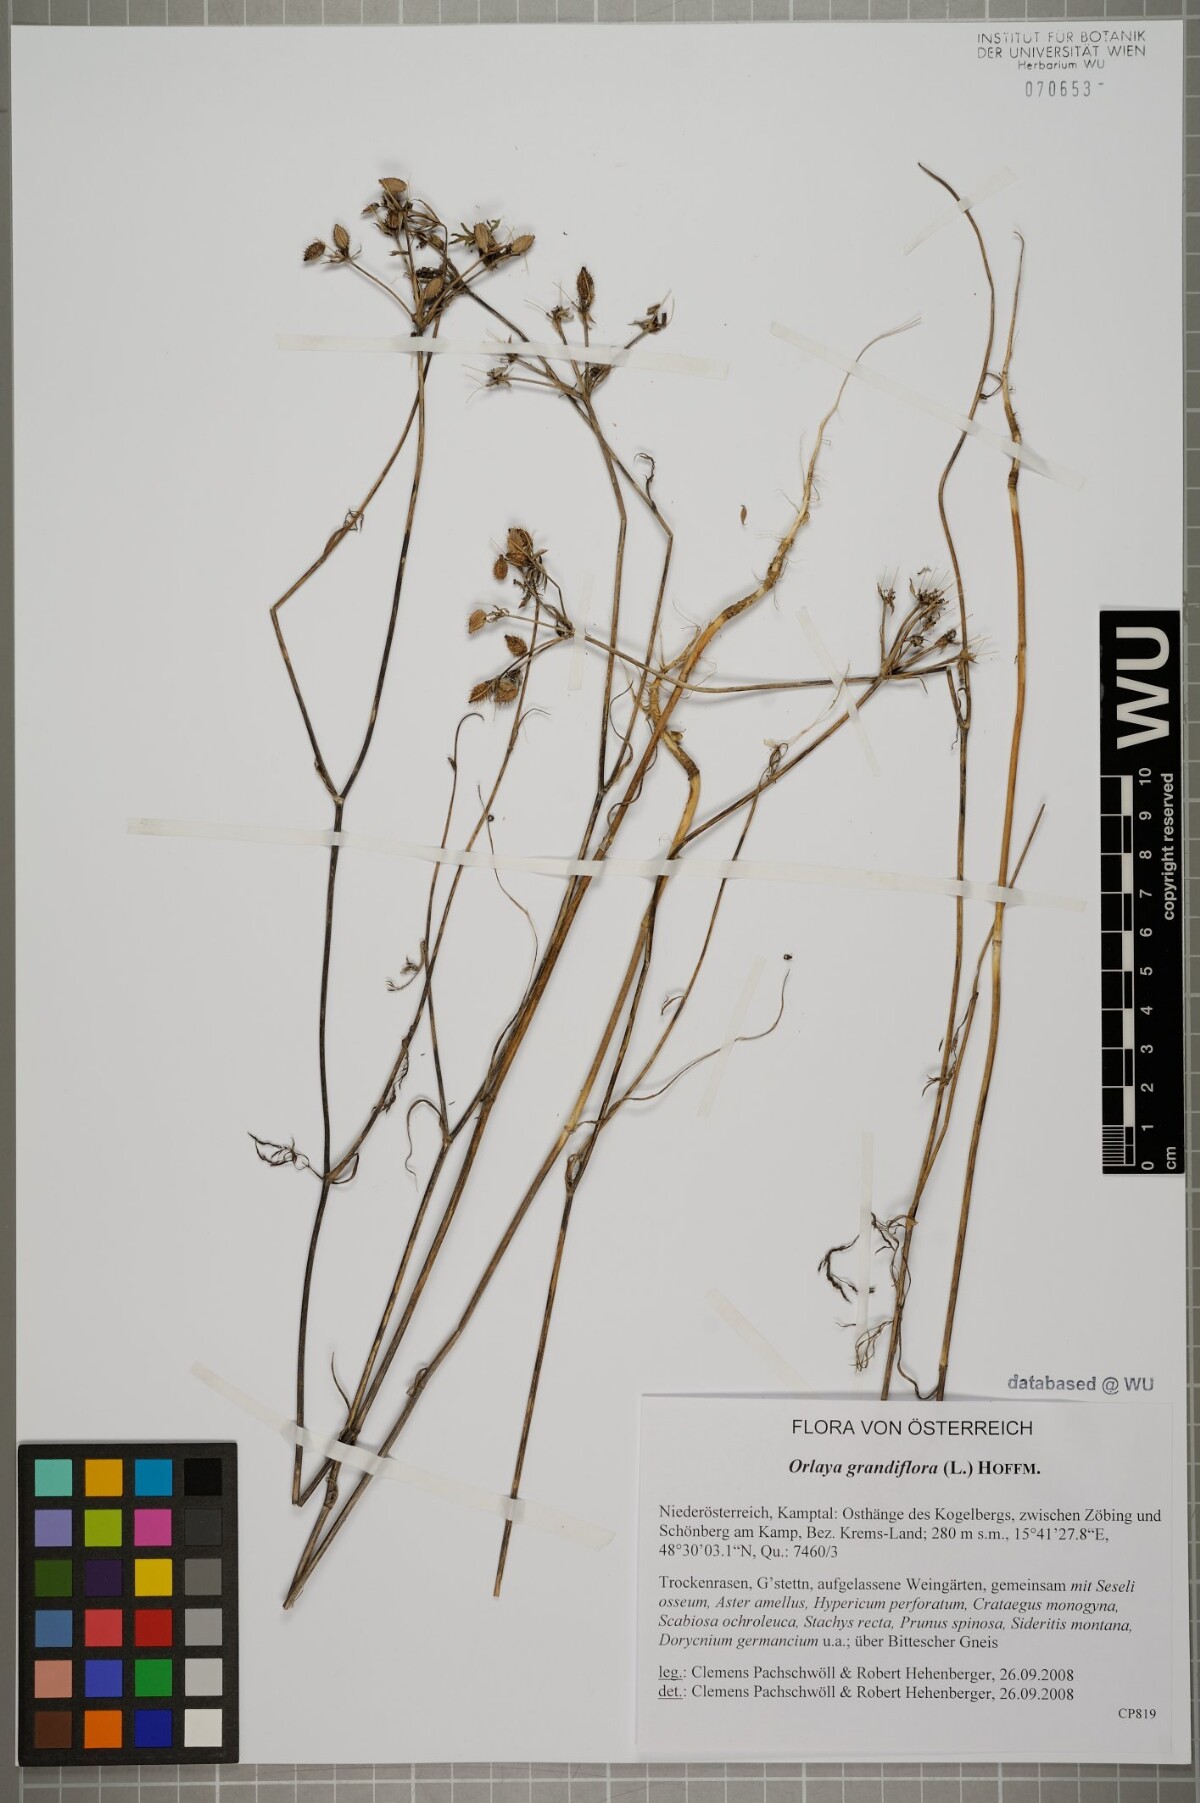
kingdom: Plantae
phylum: Tracheophyta
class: Magnoliopsida
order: Apiales
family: Apiaceae
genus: Orlaya
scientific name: Orlaya grandiflora
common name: White lace flower
